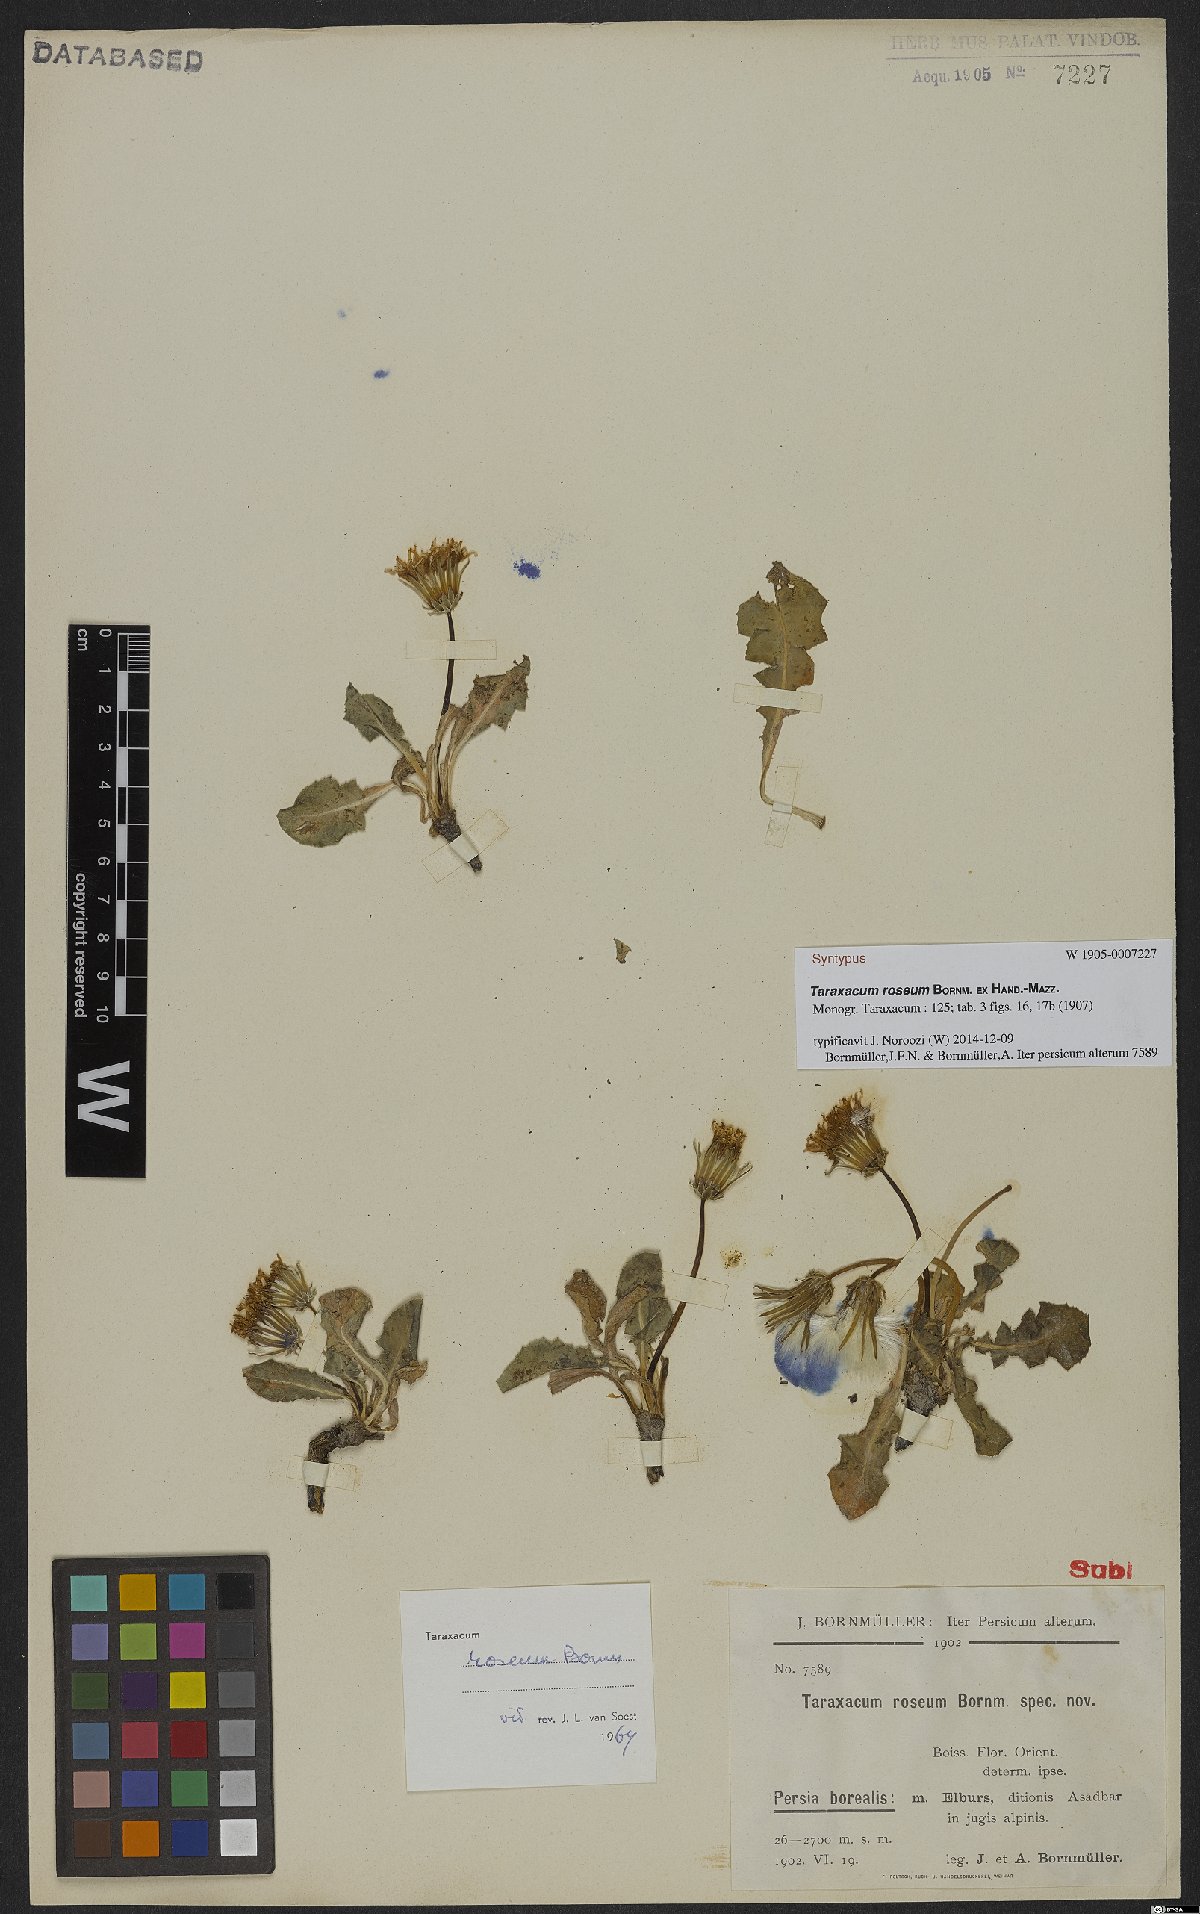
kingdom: Plantae
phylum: Tracheophyta
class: Magnoliopsida
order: Asterales
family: Asteraceae
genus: Taraxacum
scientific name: Taraxacum roseum
